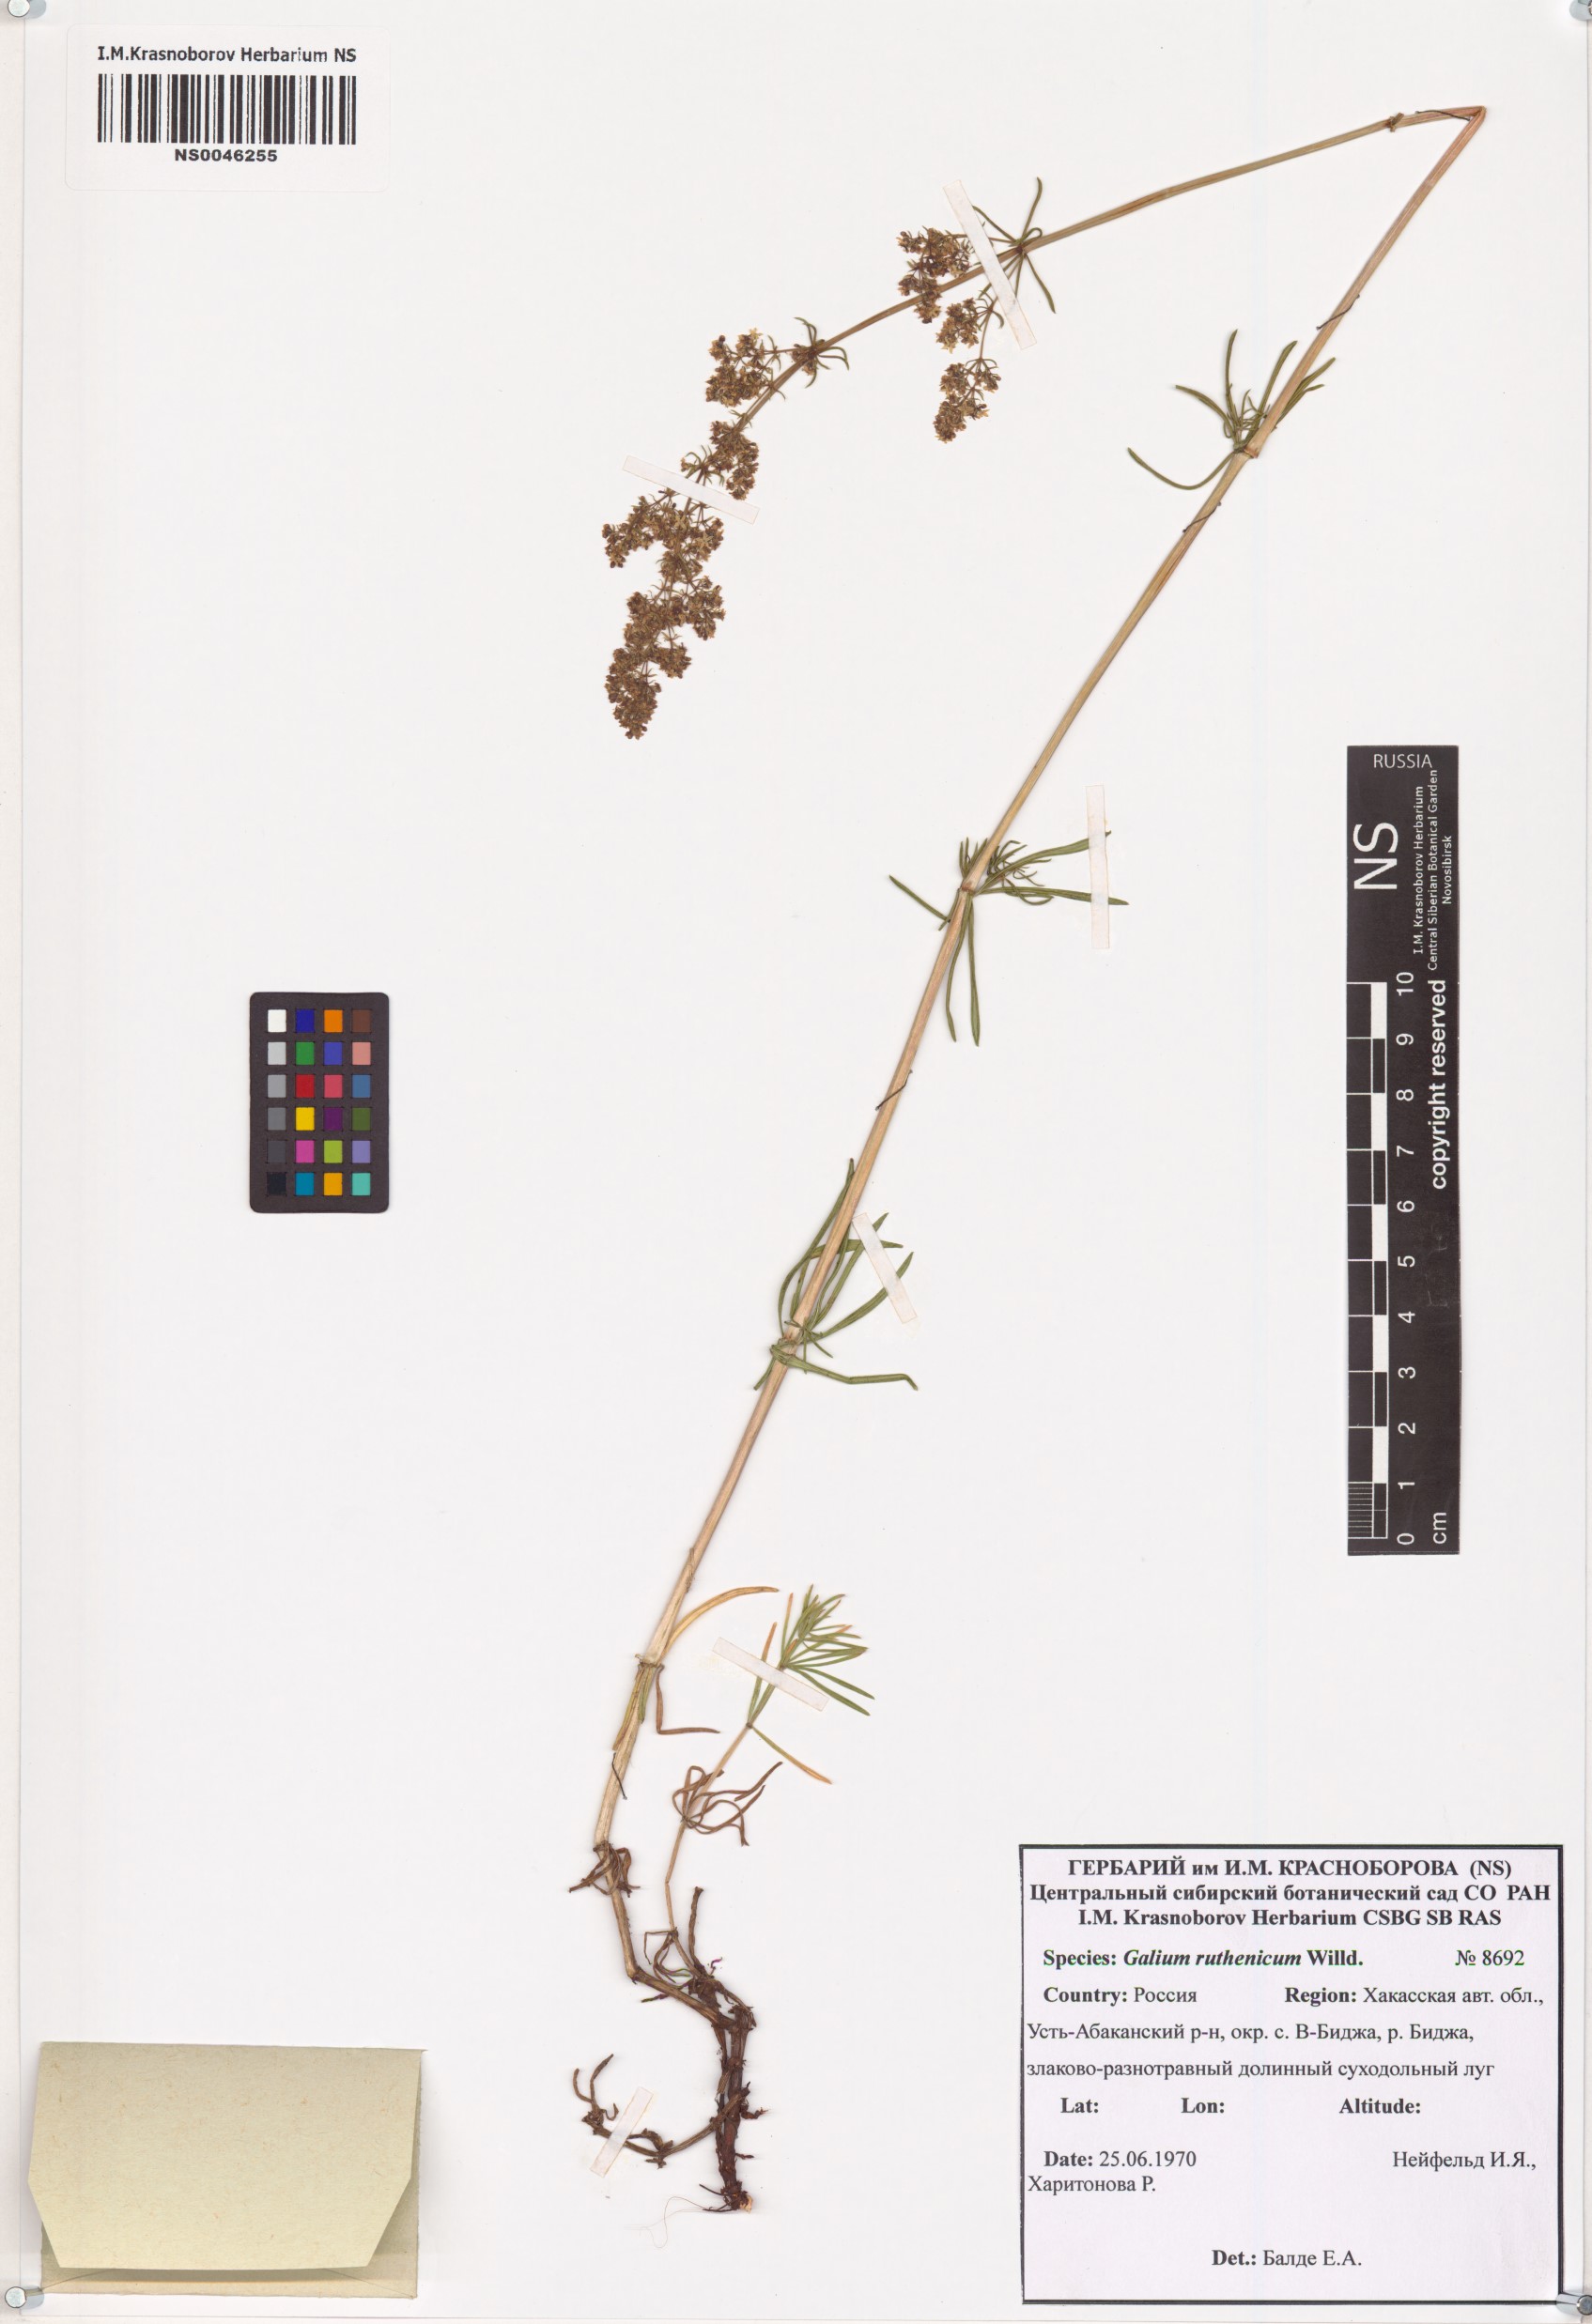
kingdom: Plantae
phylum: Tracheophyta
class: Magnoliopsida
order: Gentianales
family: Rubiaceae
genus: Galium
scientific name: Galium verum
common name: Lady's bedstraw
